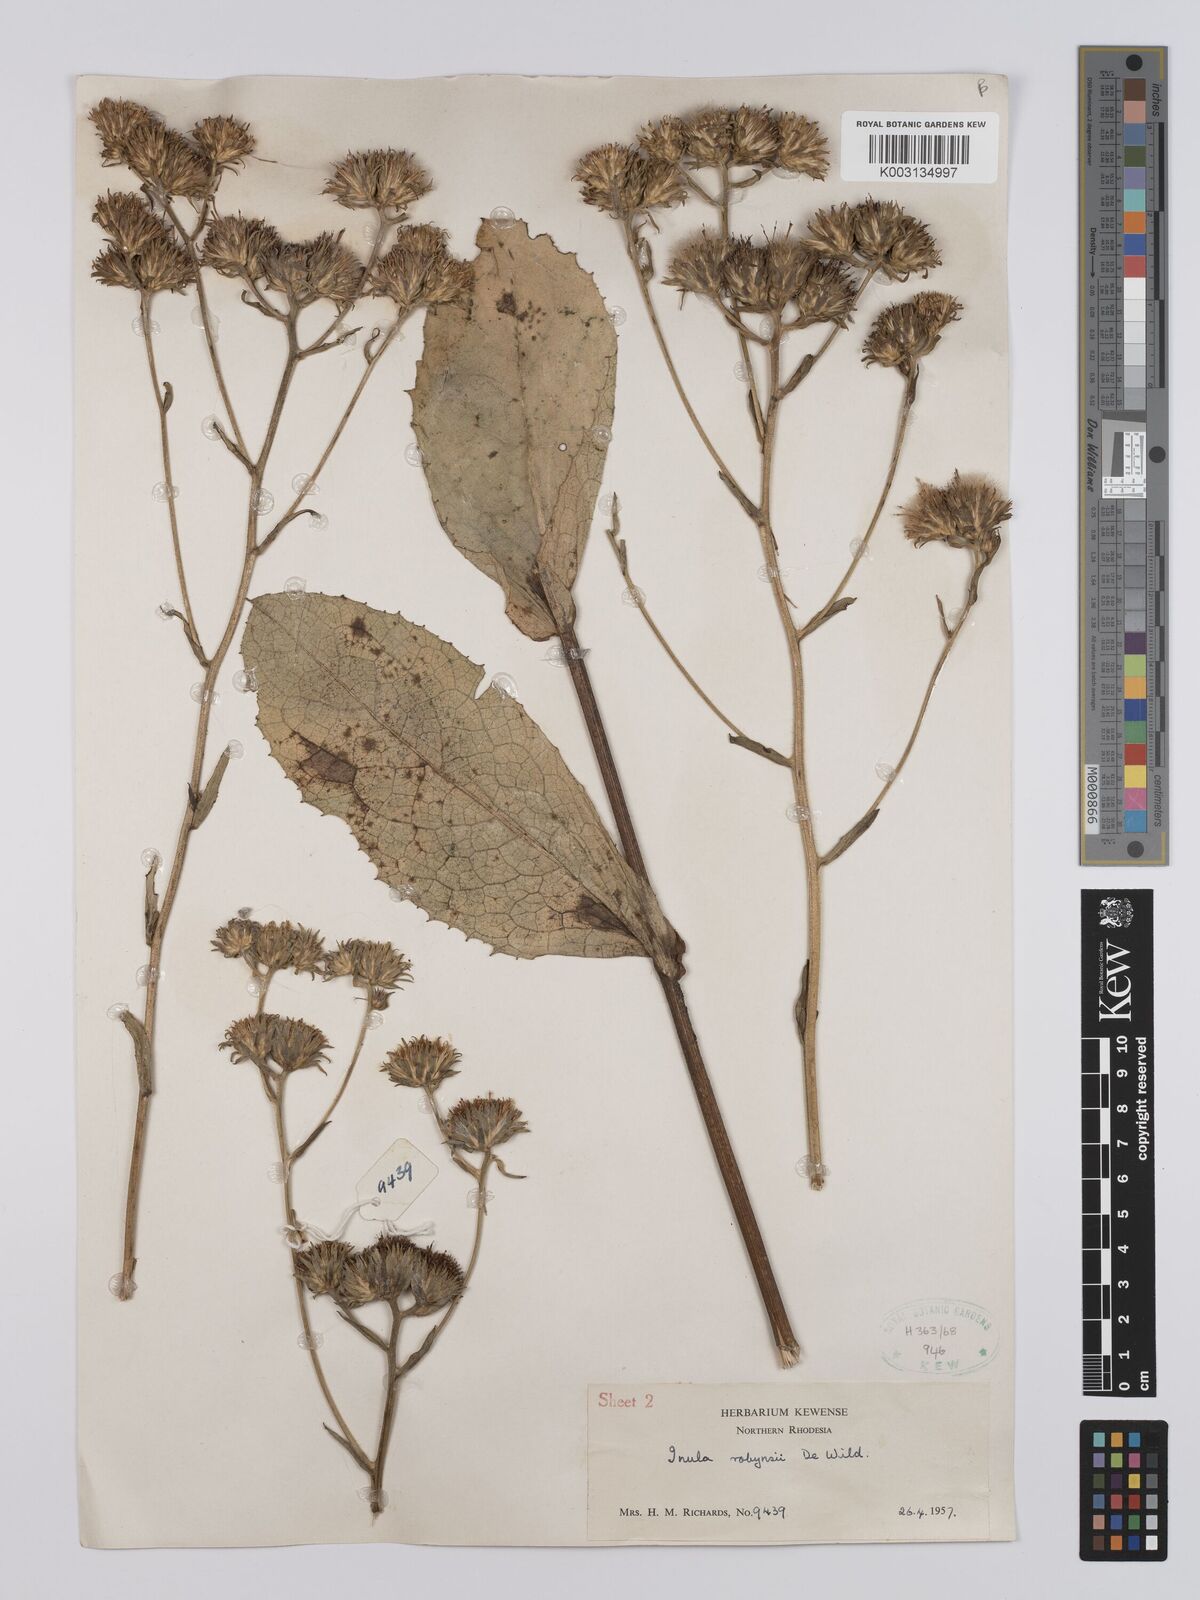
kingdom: Plantae
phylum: Tracheophyta
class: Magnoliopsida
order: Asterales
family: Asteraceae
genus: Inula
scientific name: Inula robynsii
